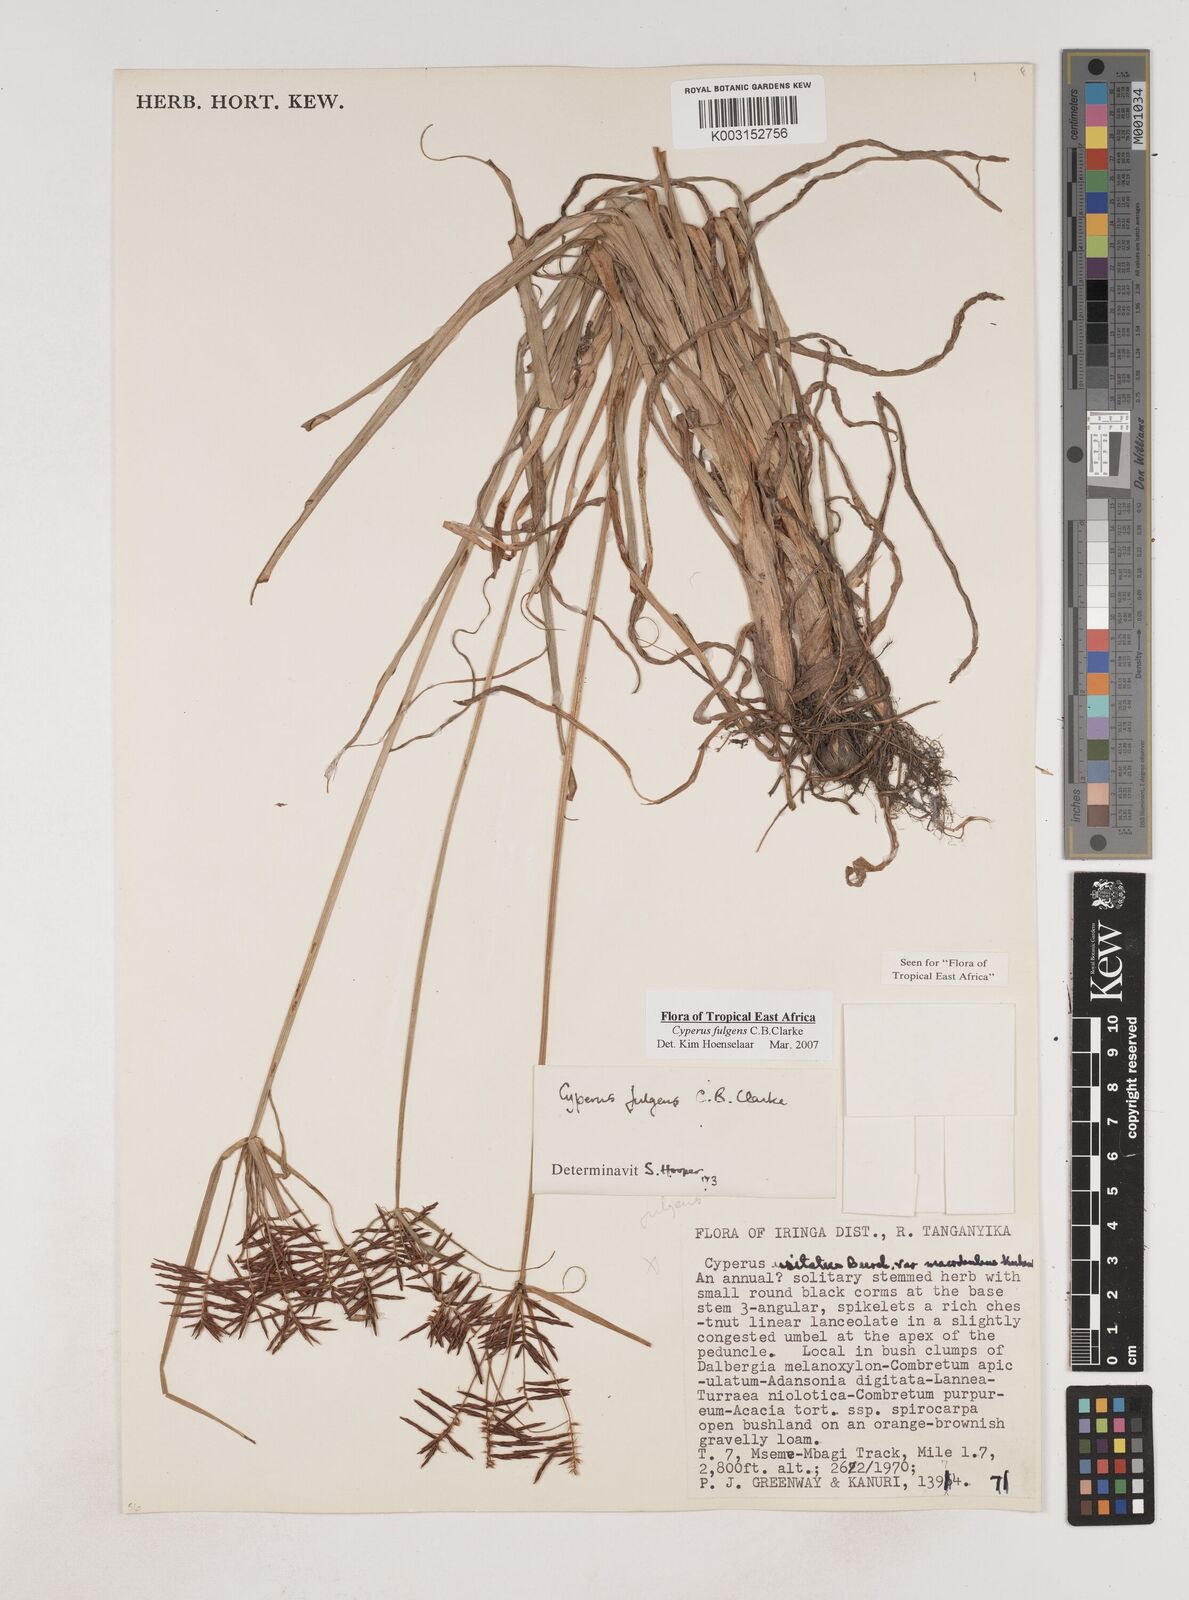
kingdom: Plantae
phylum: Tracheophyta
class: Liliopsida
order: Poales
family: Cyperaceae
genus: Cyperus
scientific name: Cyperus callistus
